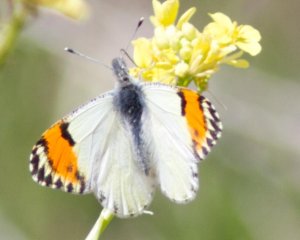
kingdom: Animalia
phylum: Arthropoda
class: Insecta
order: Lepidoptera
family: Pieridae
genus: Anthocharis
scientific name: Anthocharis sara
